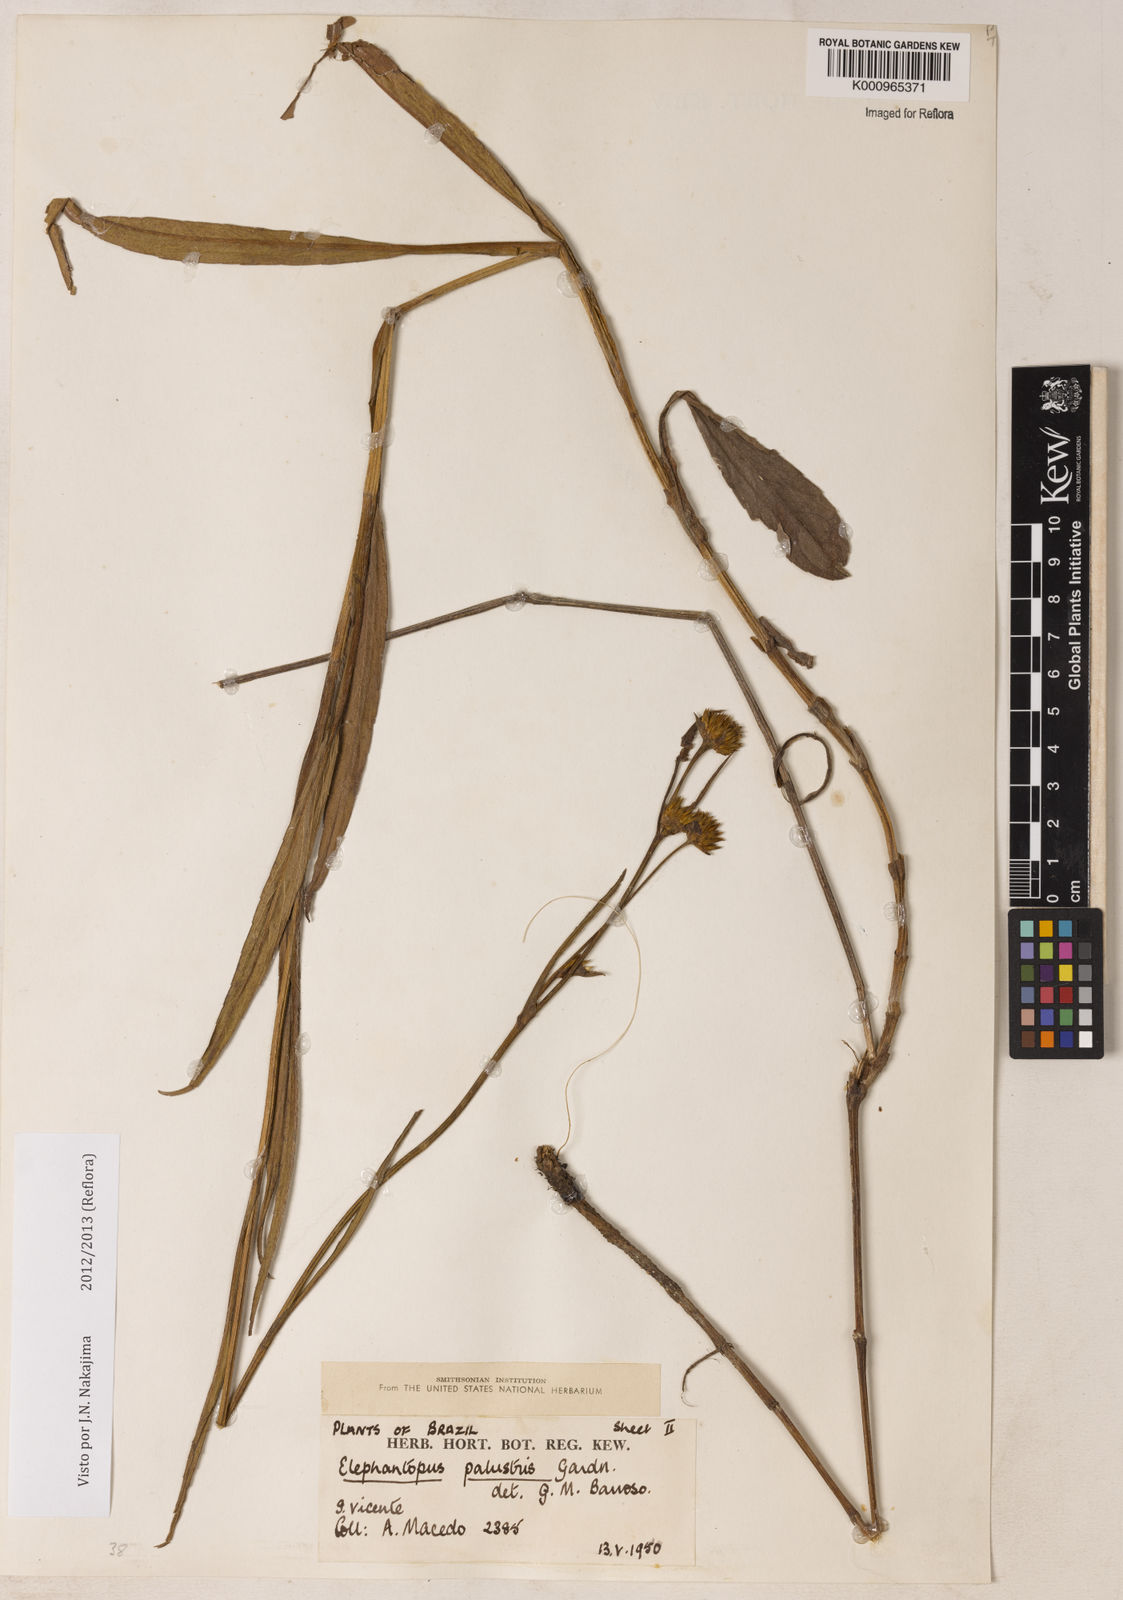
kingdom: Plantae
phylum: Tracheophyta
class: Magnoliopsida
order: Asterales
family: Asteraceae
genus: Elephantopus
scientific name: Elephantopus palustris
